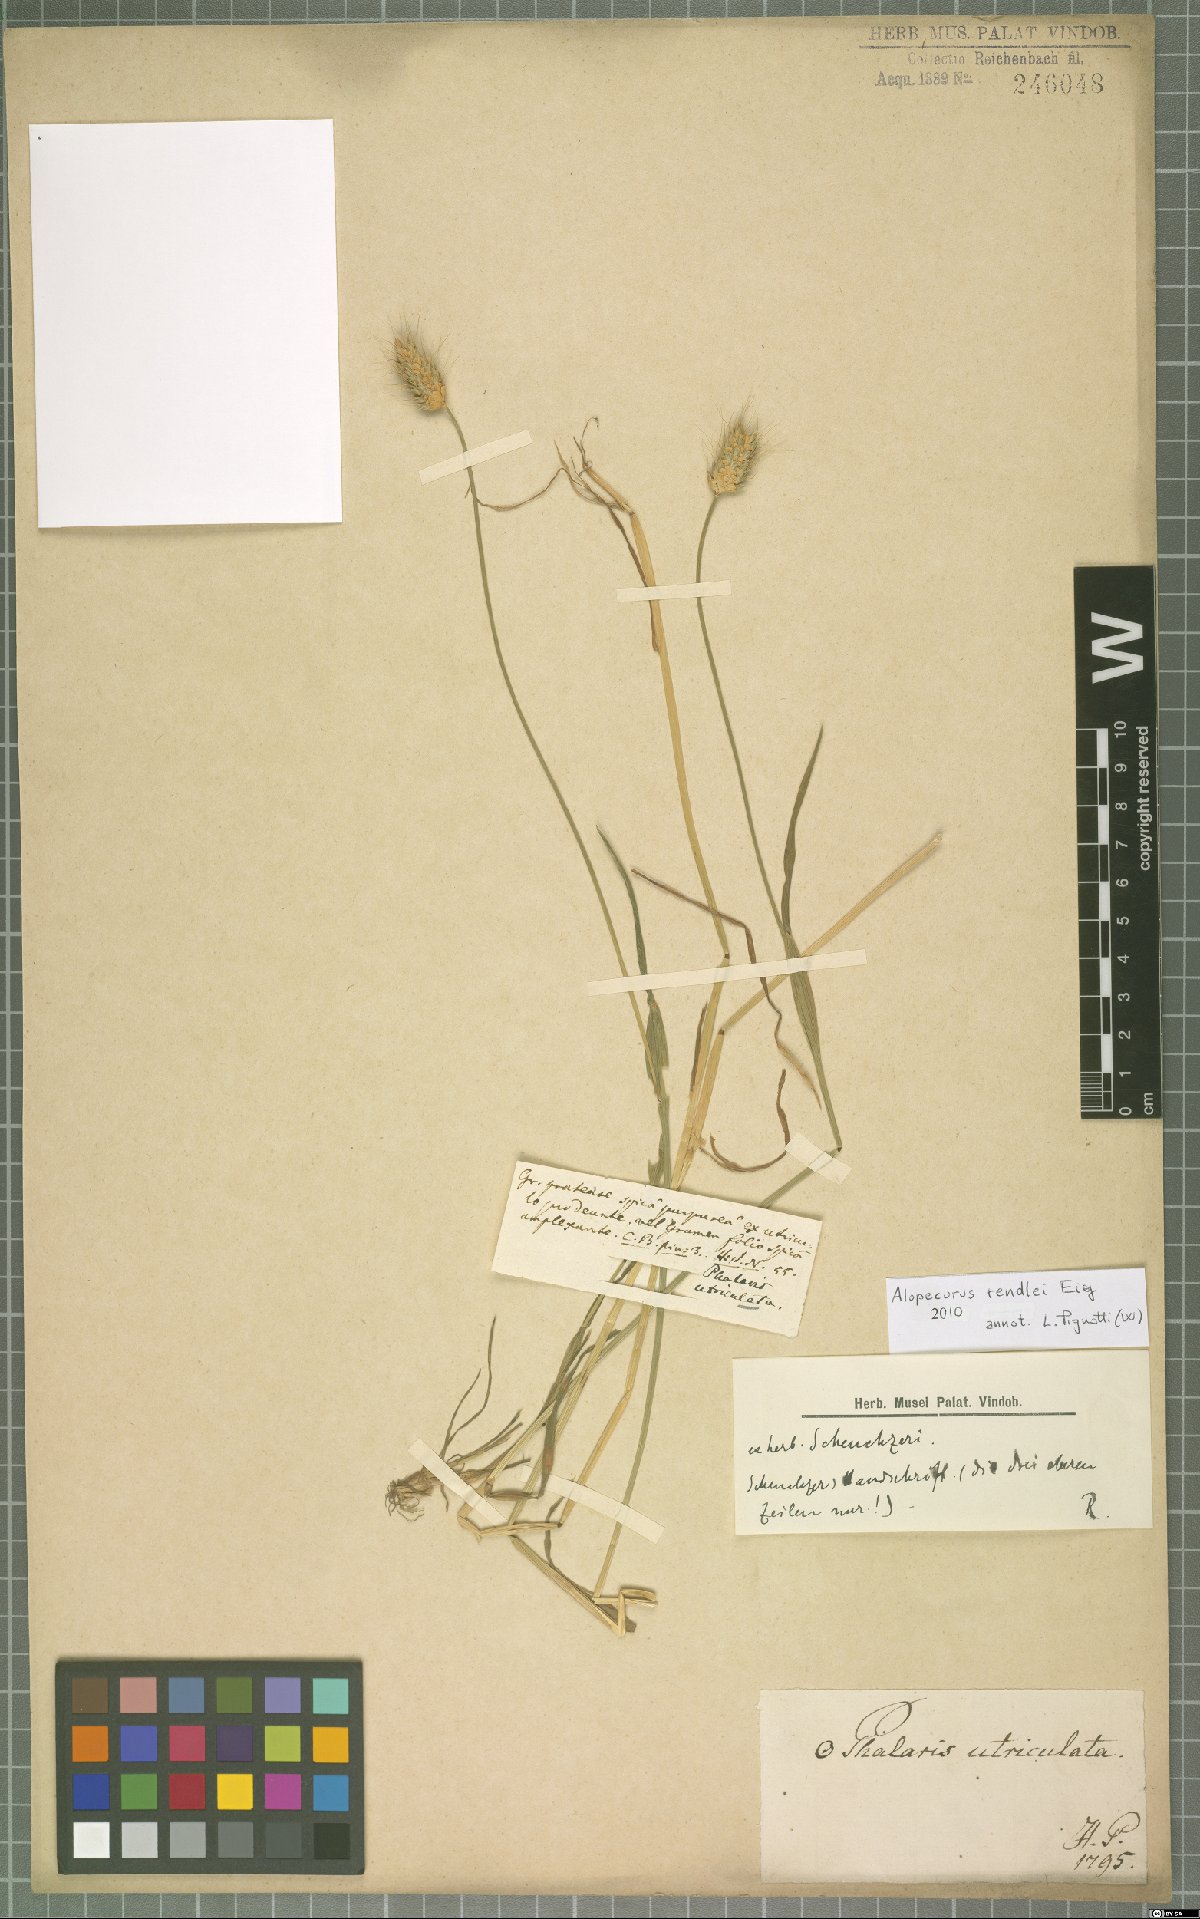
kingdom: Plantae
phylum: Tracheophyta
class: Liliopsida
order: Poales
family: Poaceae
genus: Alopecurus
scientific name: Alopecurus rendlei
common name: Rendle's meadow foxtail
